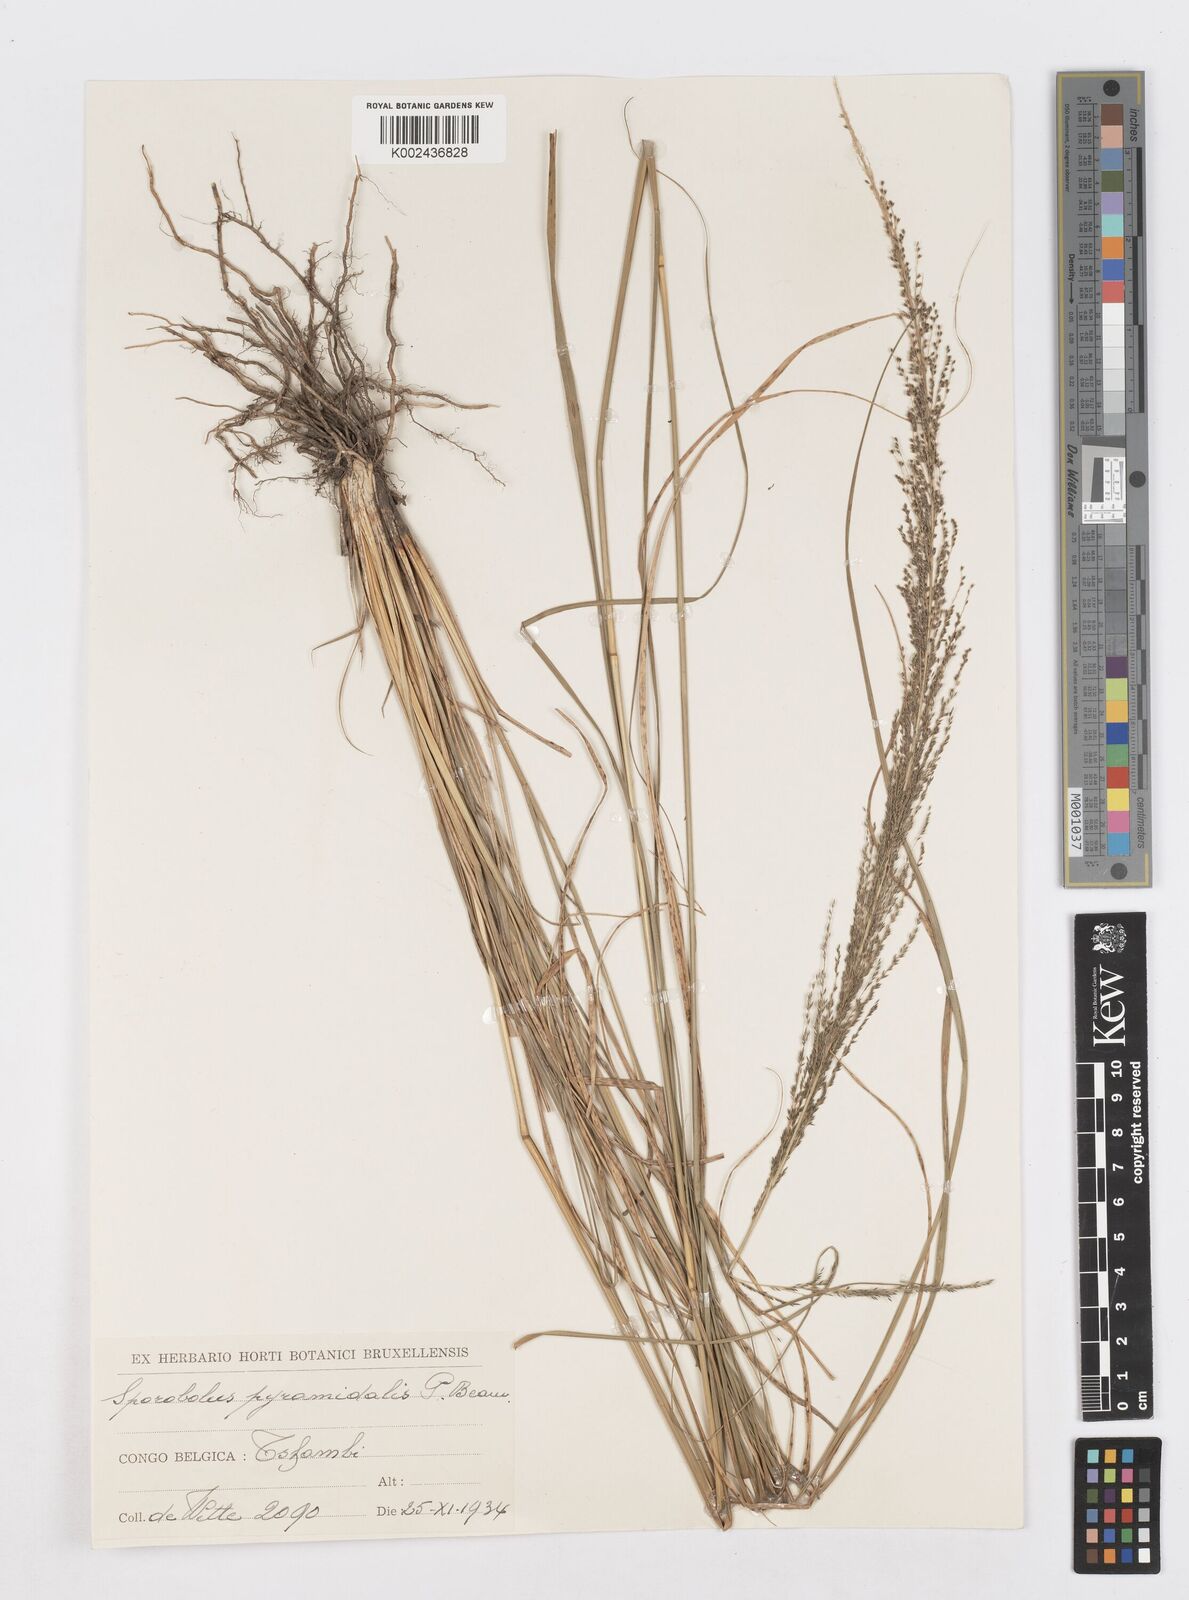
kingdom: Plantae
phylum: Tracheophyta
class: Liliopsida
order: Poales
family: Poaceae
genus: Sporobolus
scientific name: Sporobolus pyramidalis
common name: West indian dropseed
